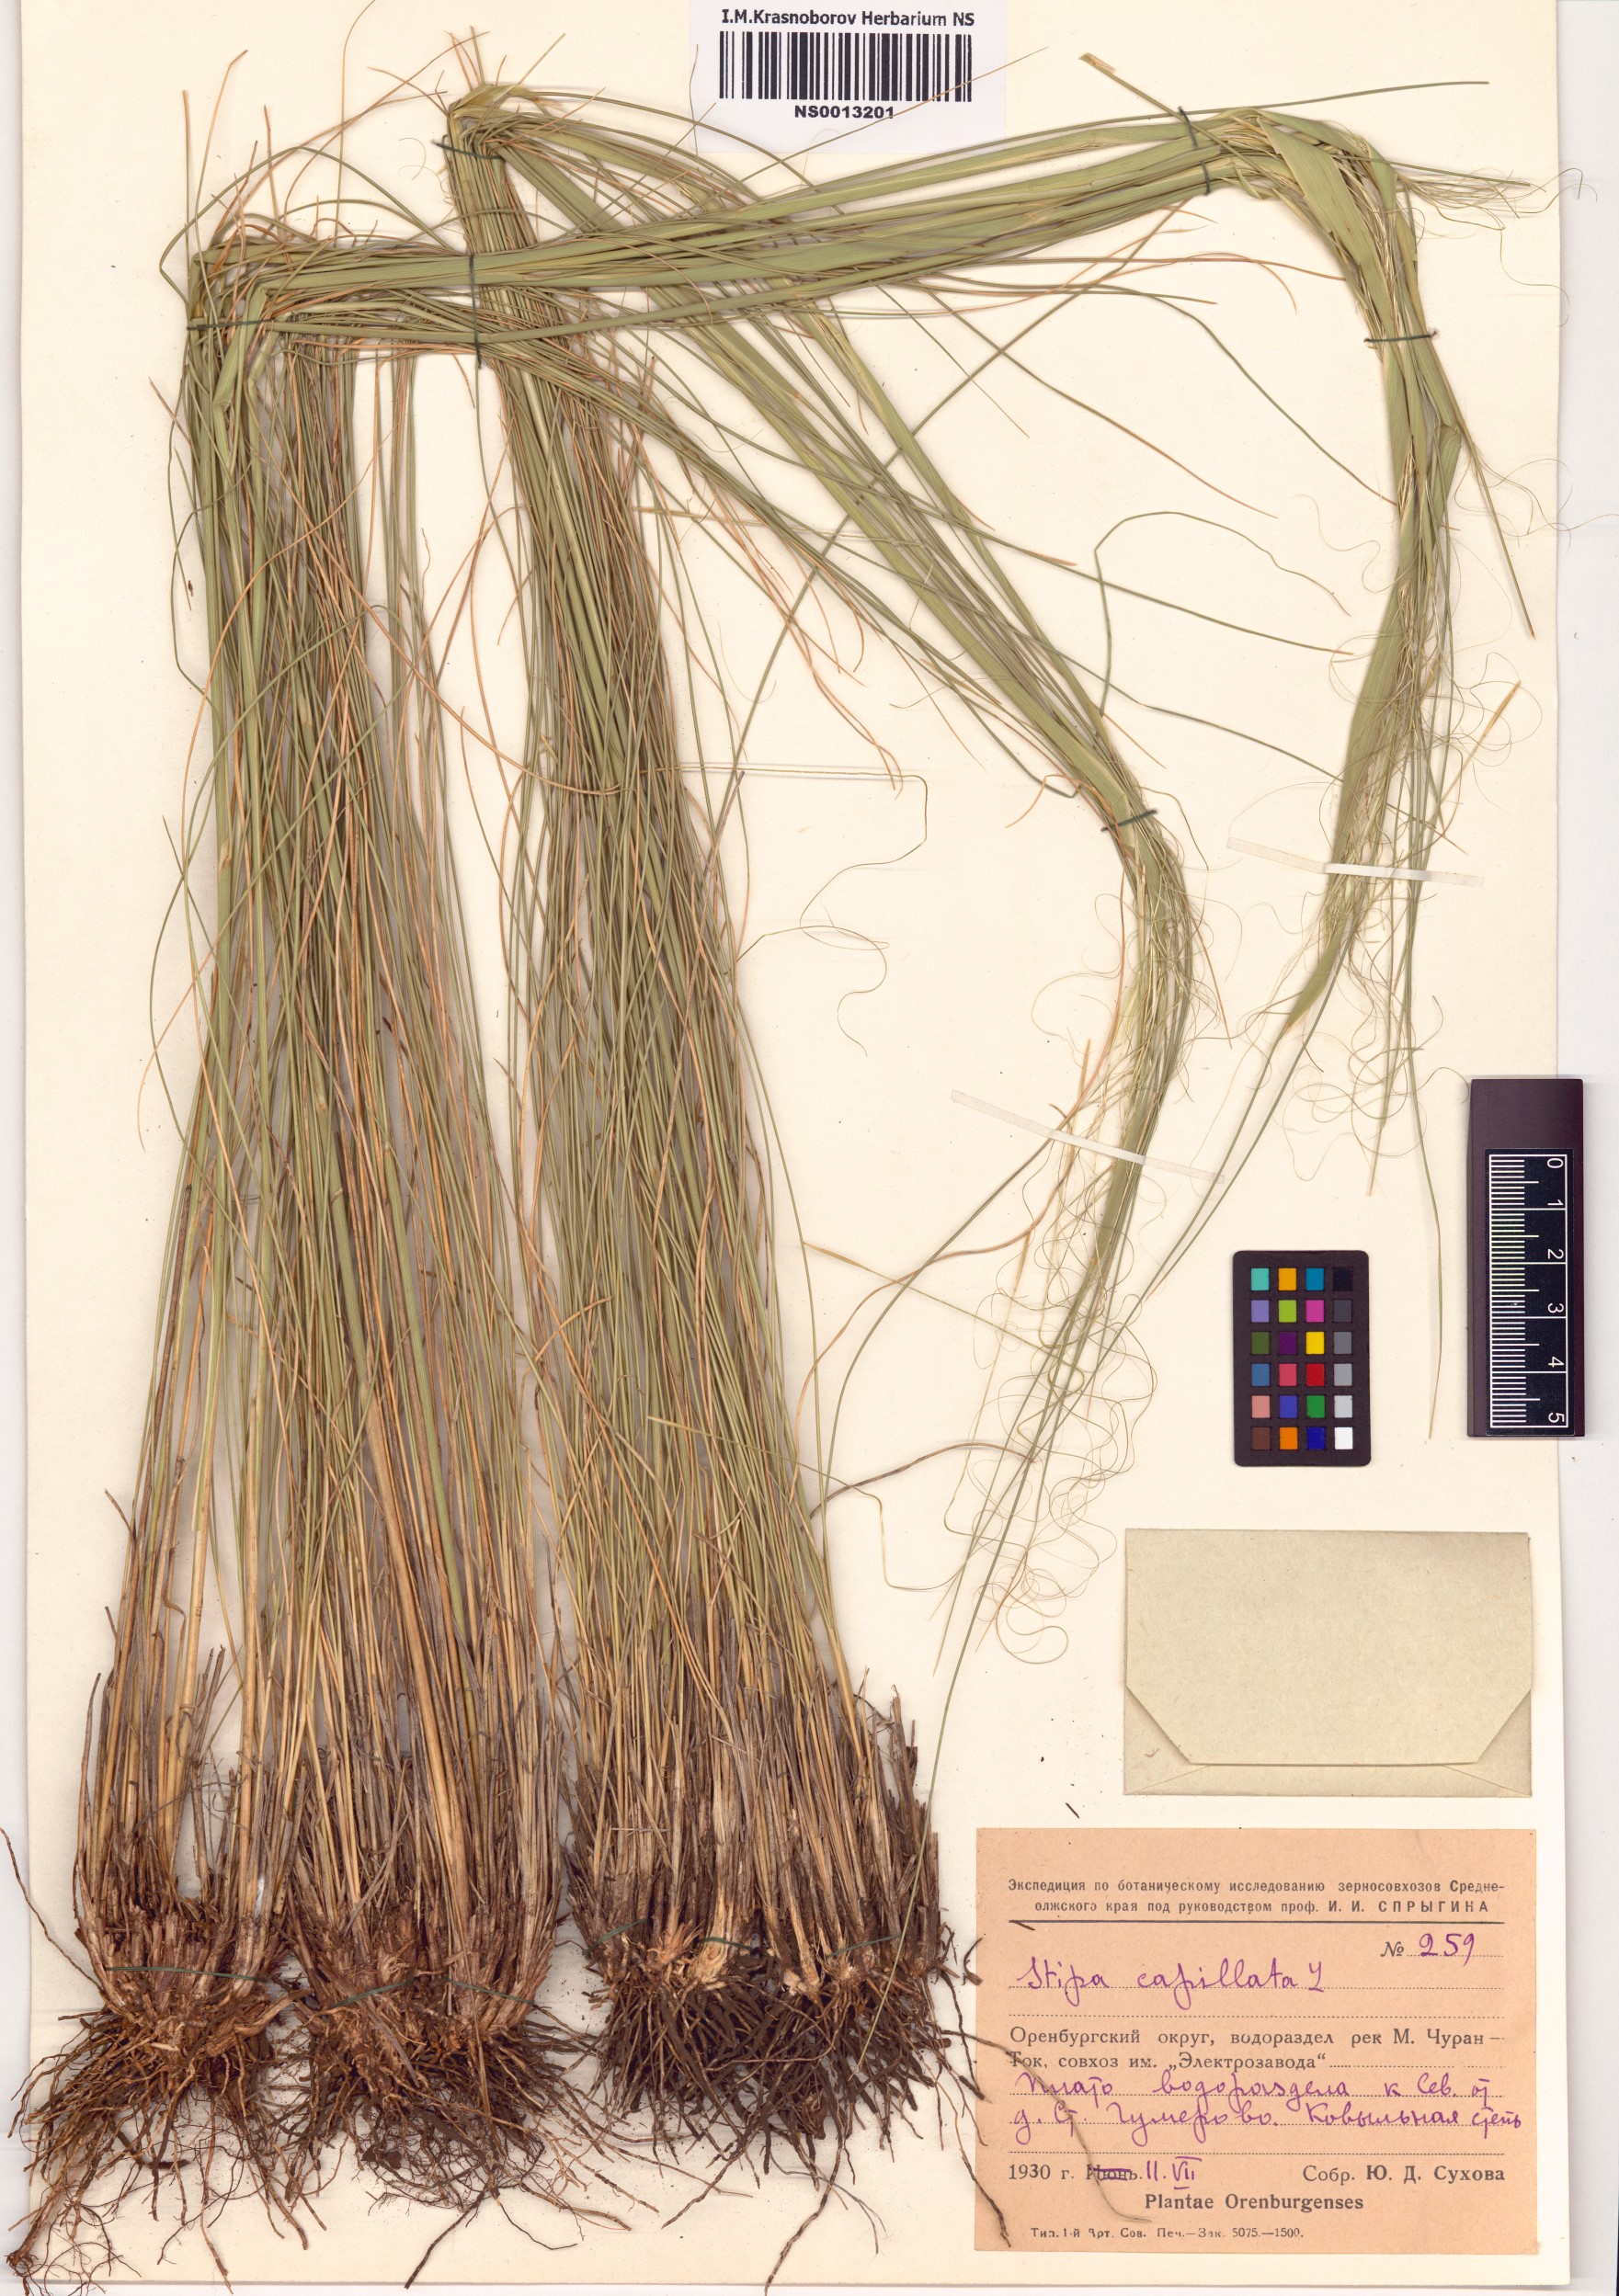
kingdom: Plantae
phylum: Tracheophyta
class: Liliopsida
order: Poales
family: Poaceae
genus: Stipa
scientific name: Stipa capillata
